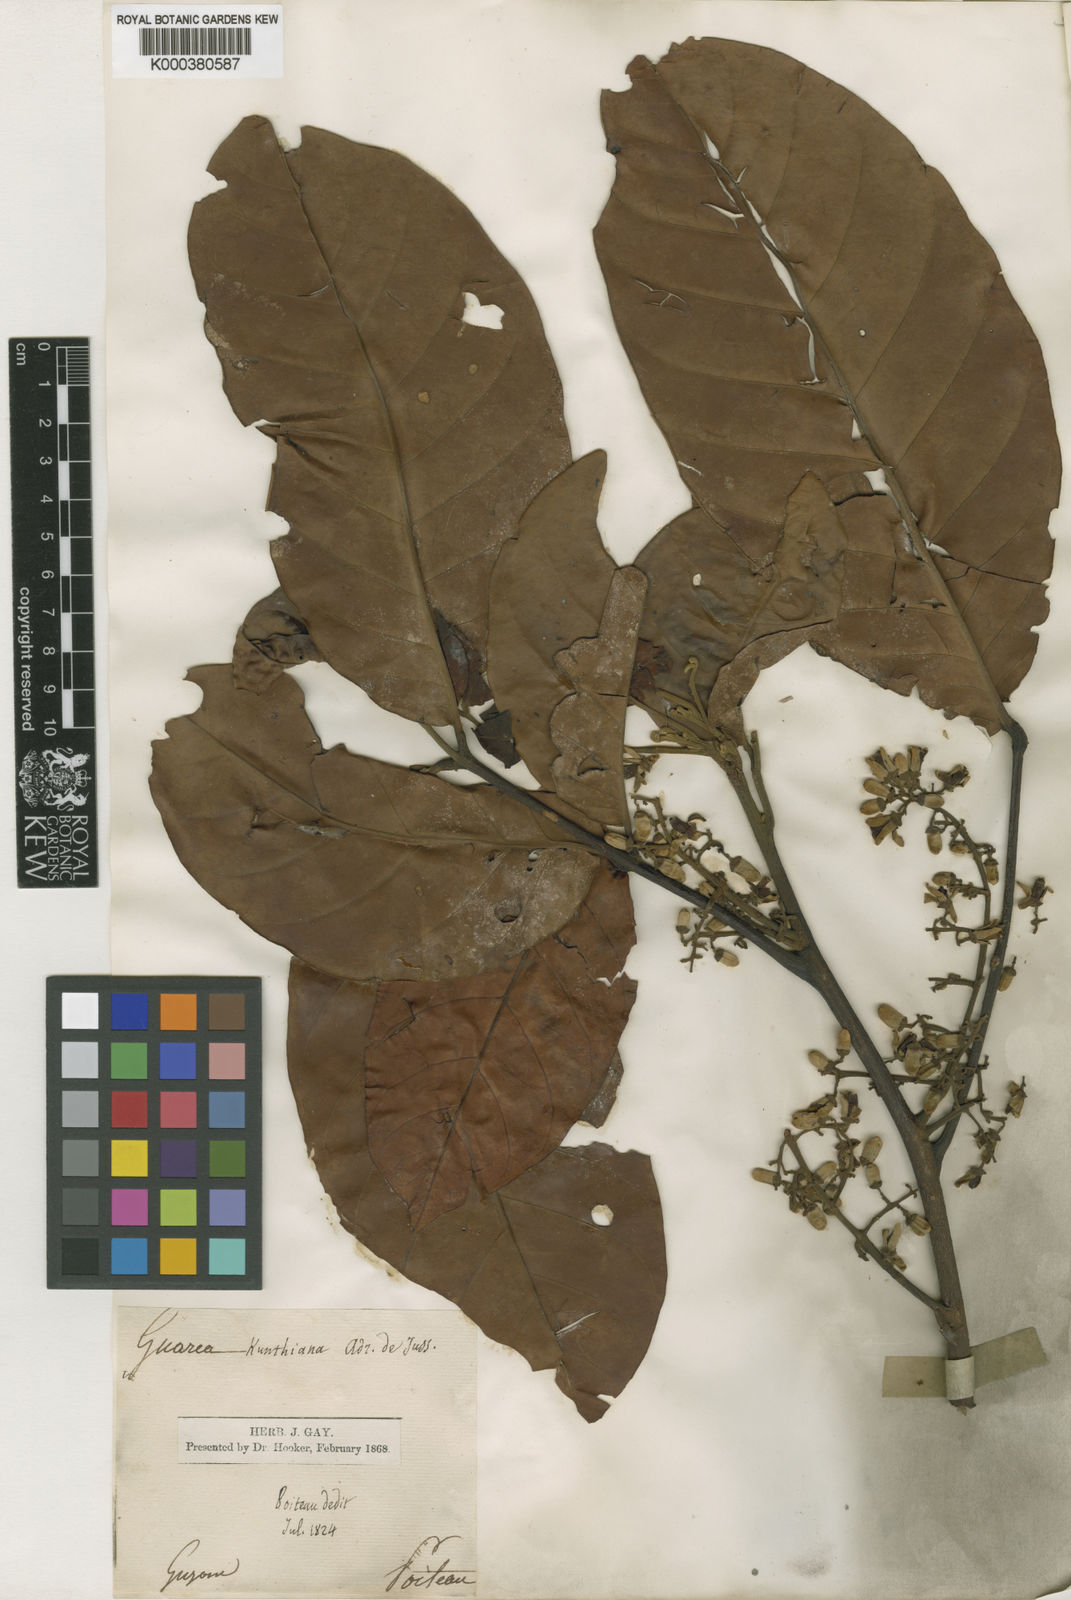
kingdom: Plantae
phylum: Tracheophyta
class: Magnoliopsida
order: Sapindales
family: Meliaceae
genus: Guarea
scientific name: Guarea kunthiana
